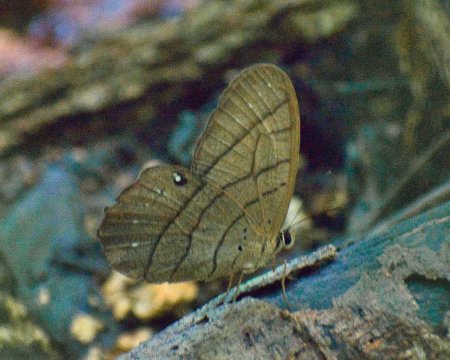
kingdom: Animalia
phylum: Arthropoda
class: Insecta
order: Lepidoptera
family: Nymphalidae
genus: Pierella
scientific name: Pierella luna
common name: Moon Satyr
